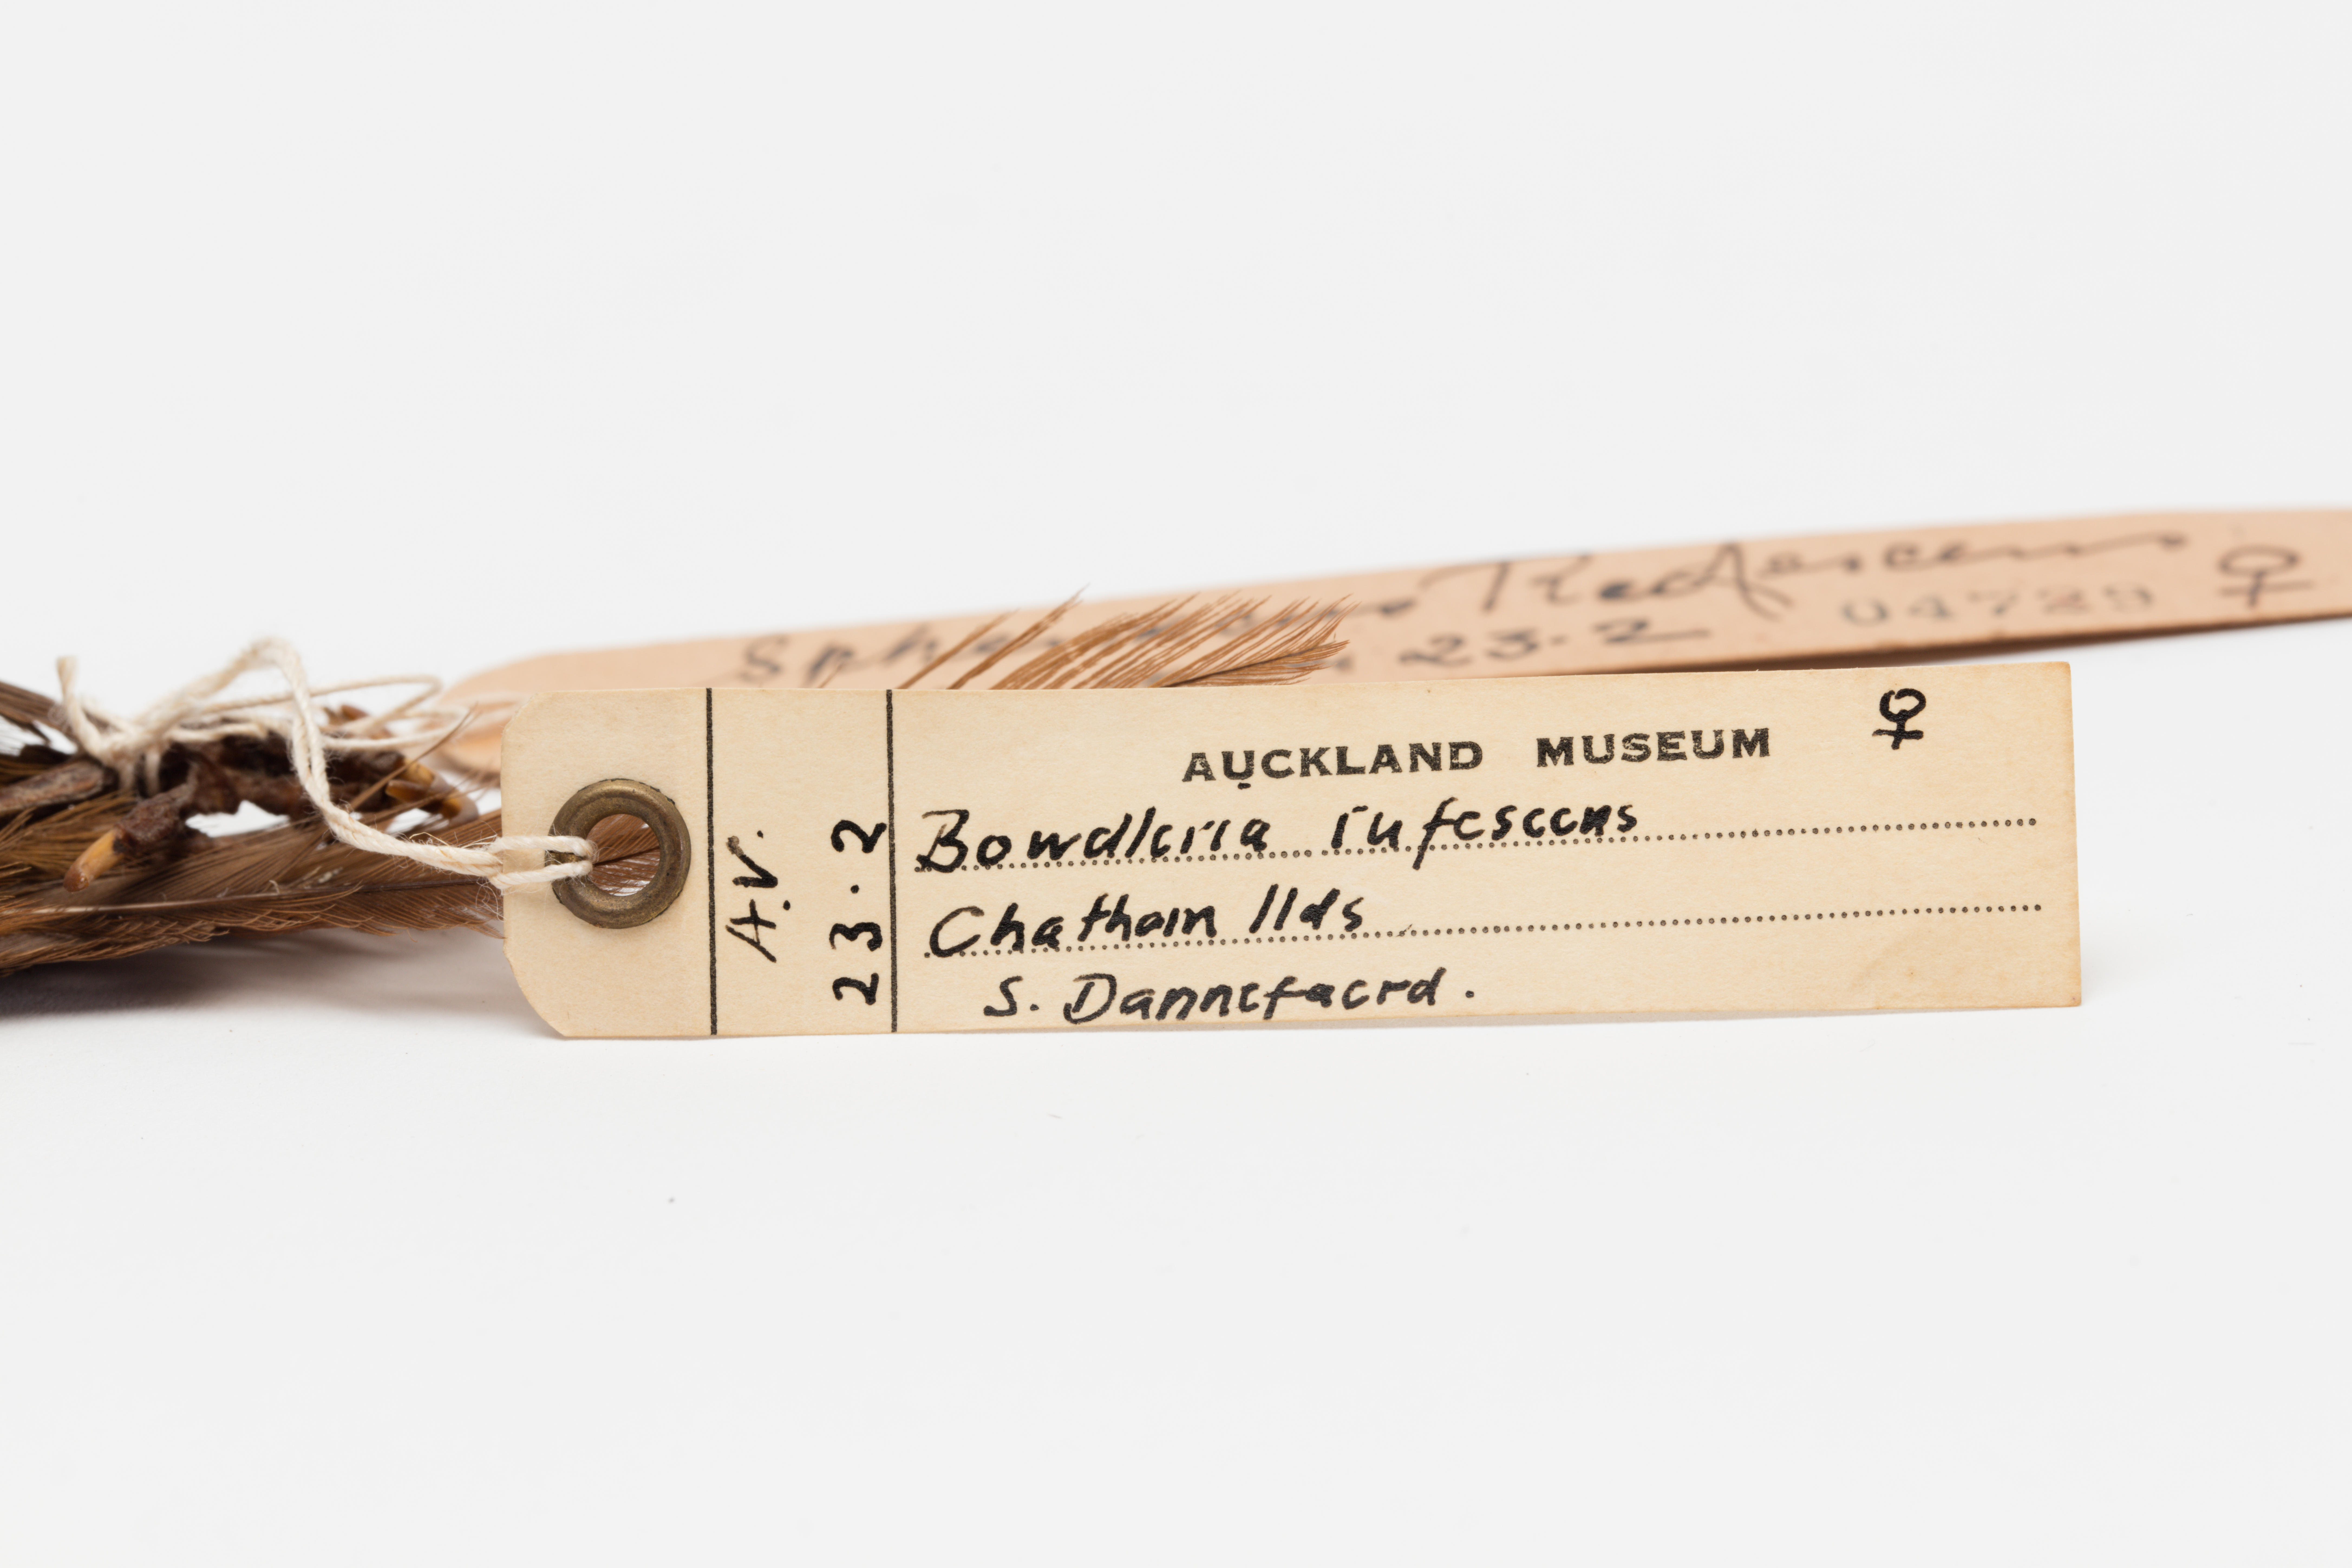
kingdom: Animalia
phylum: Chordata
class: Aves
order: Passeriformes
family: Locustellidae
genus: Megalurus
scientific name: Megalurus rufescens
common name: Chatham fernbird
